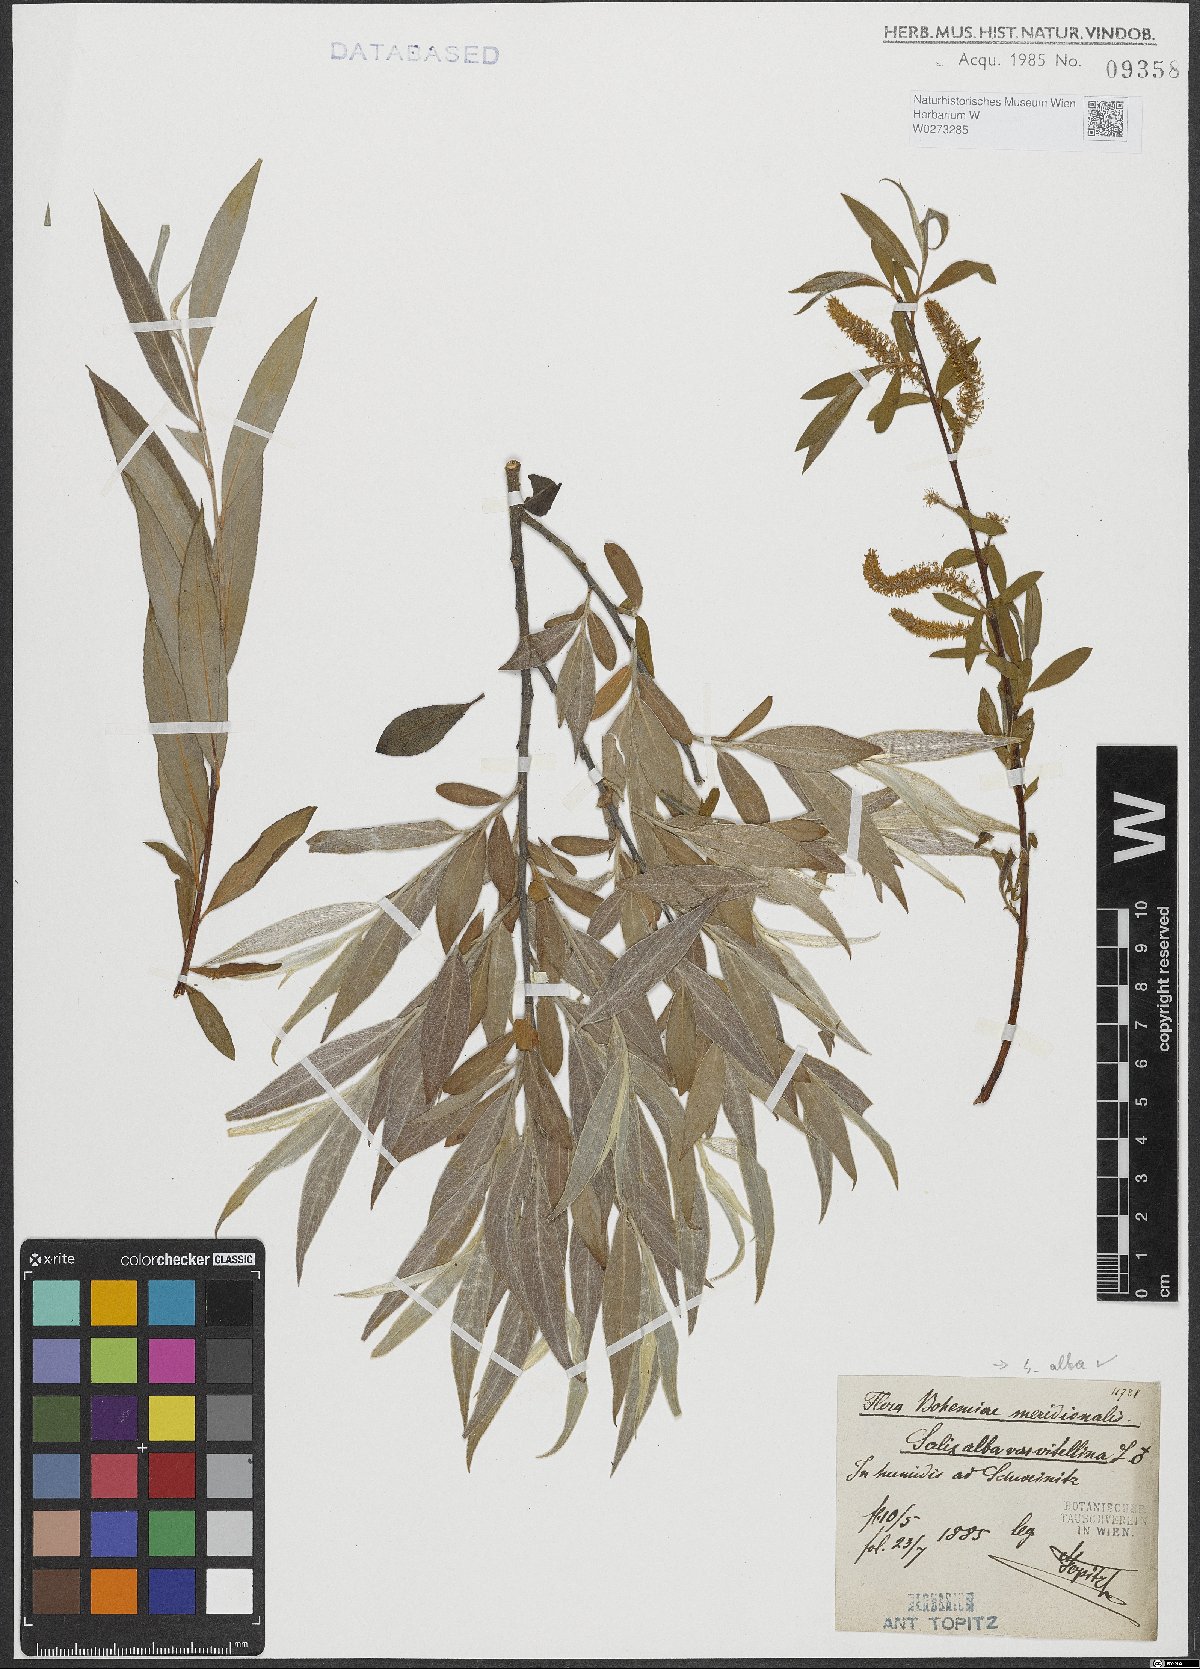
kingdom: Plantae
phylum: Tracheophyta
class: Magnoliopsida
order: Malpighiales
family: Salicaceae
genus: Salix
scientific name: Salix alba
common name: White willow
